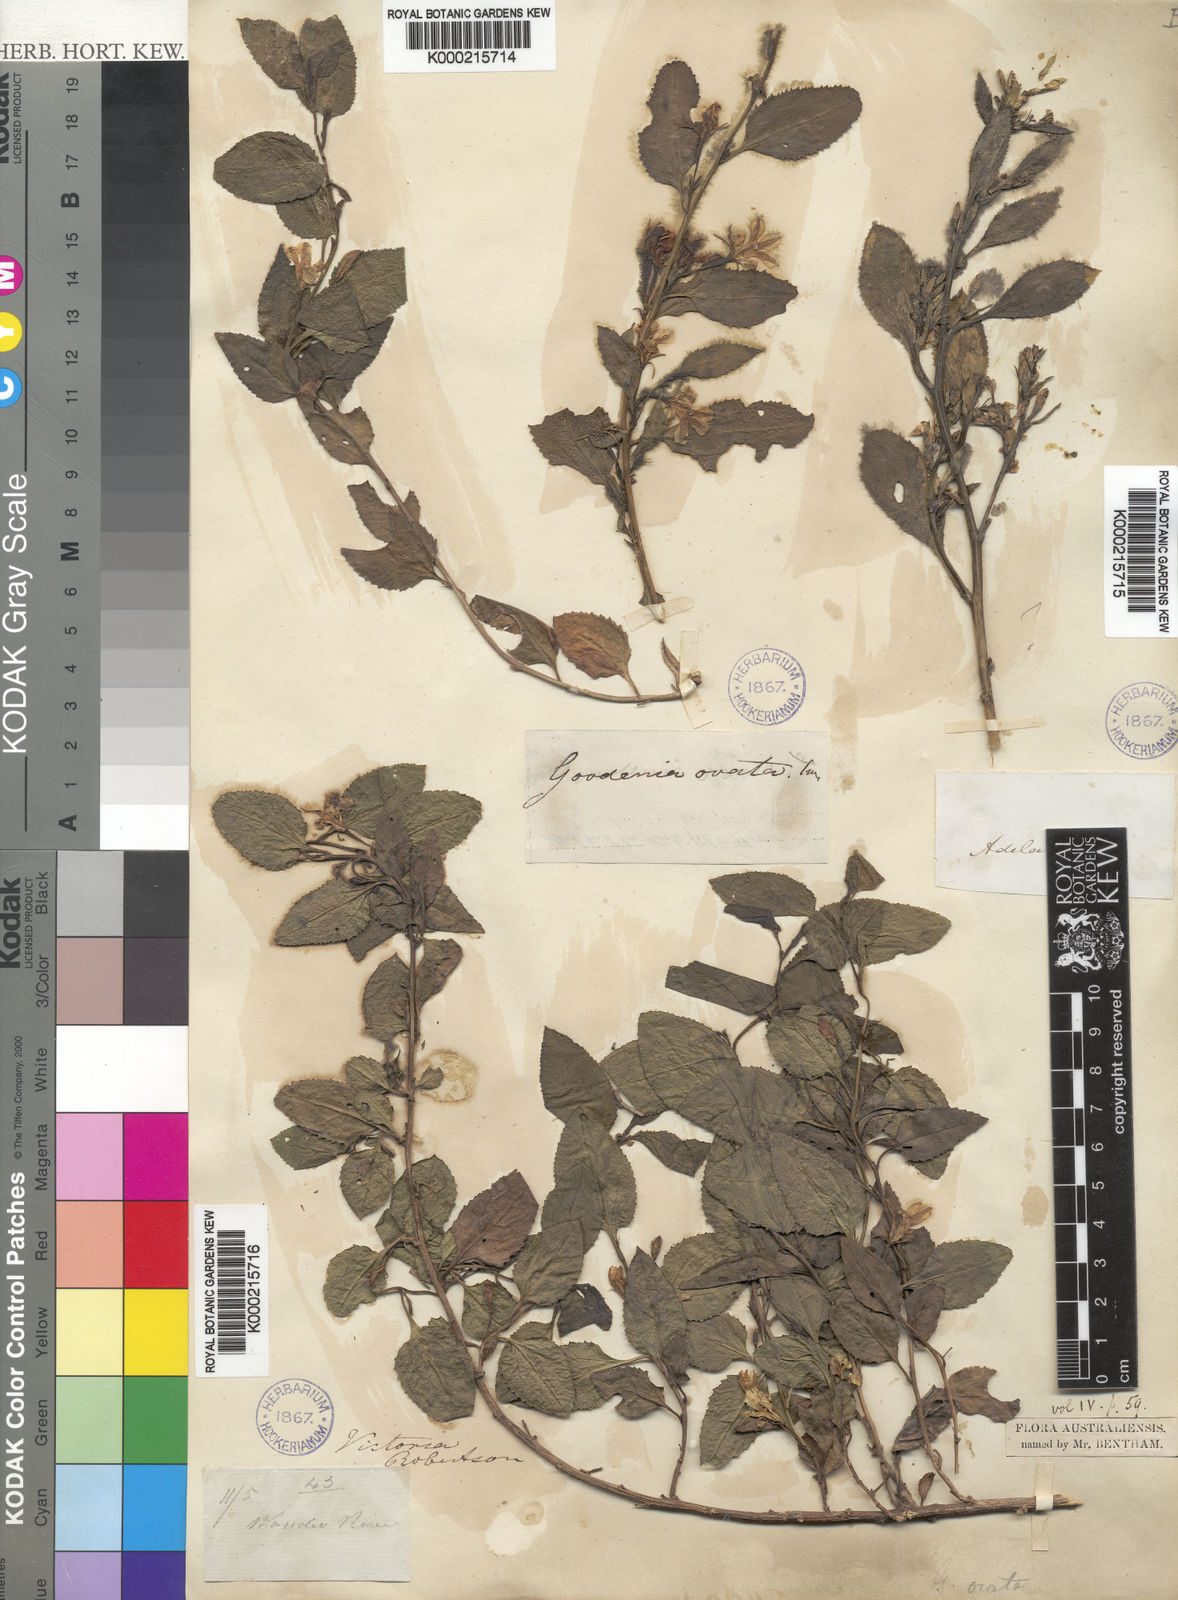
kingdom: Plantae
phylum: Tracheophyta
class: Magnoliopsida
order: Asterales
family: Goodeniaceae
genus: Goodenia
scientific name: Goodenia ovata
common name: Hop goodenia
